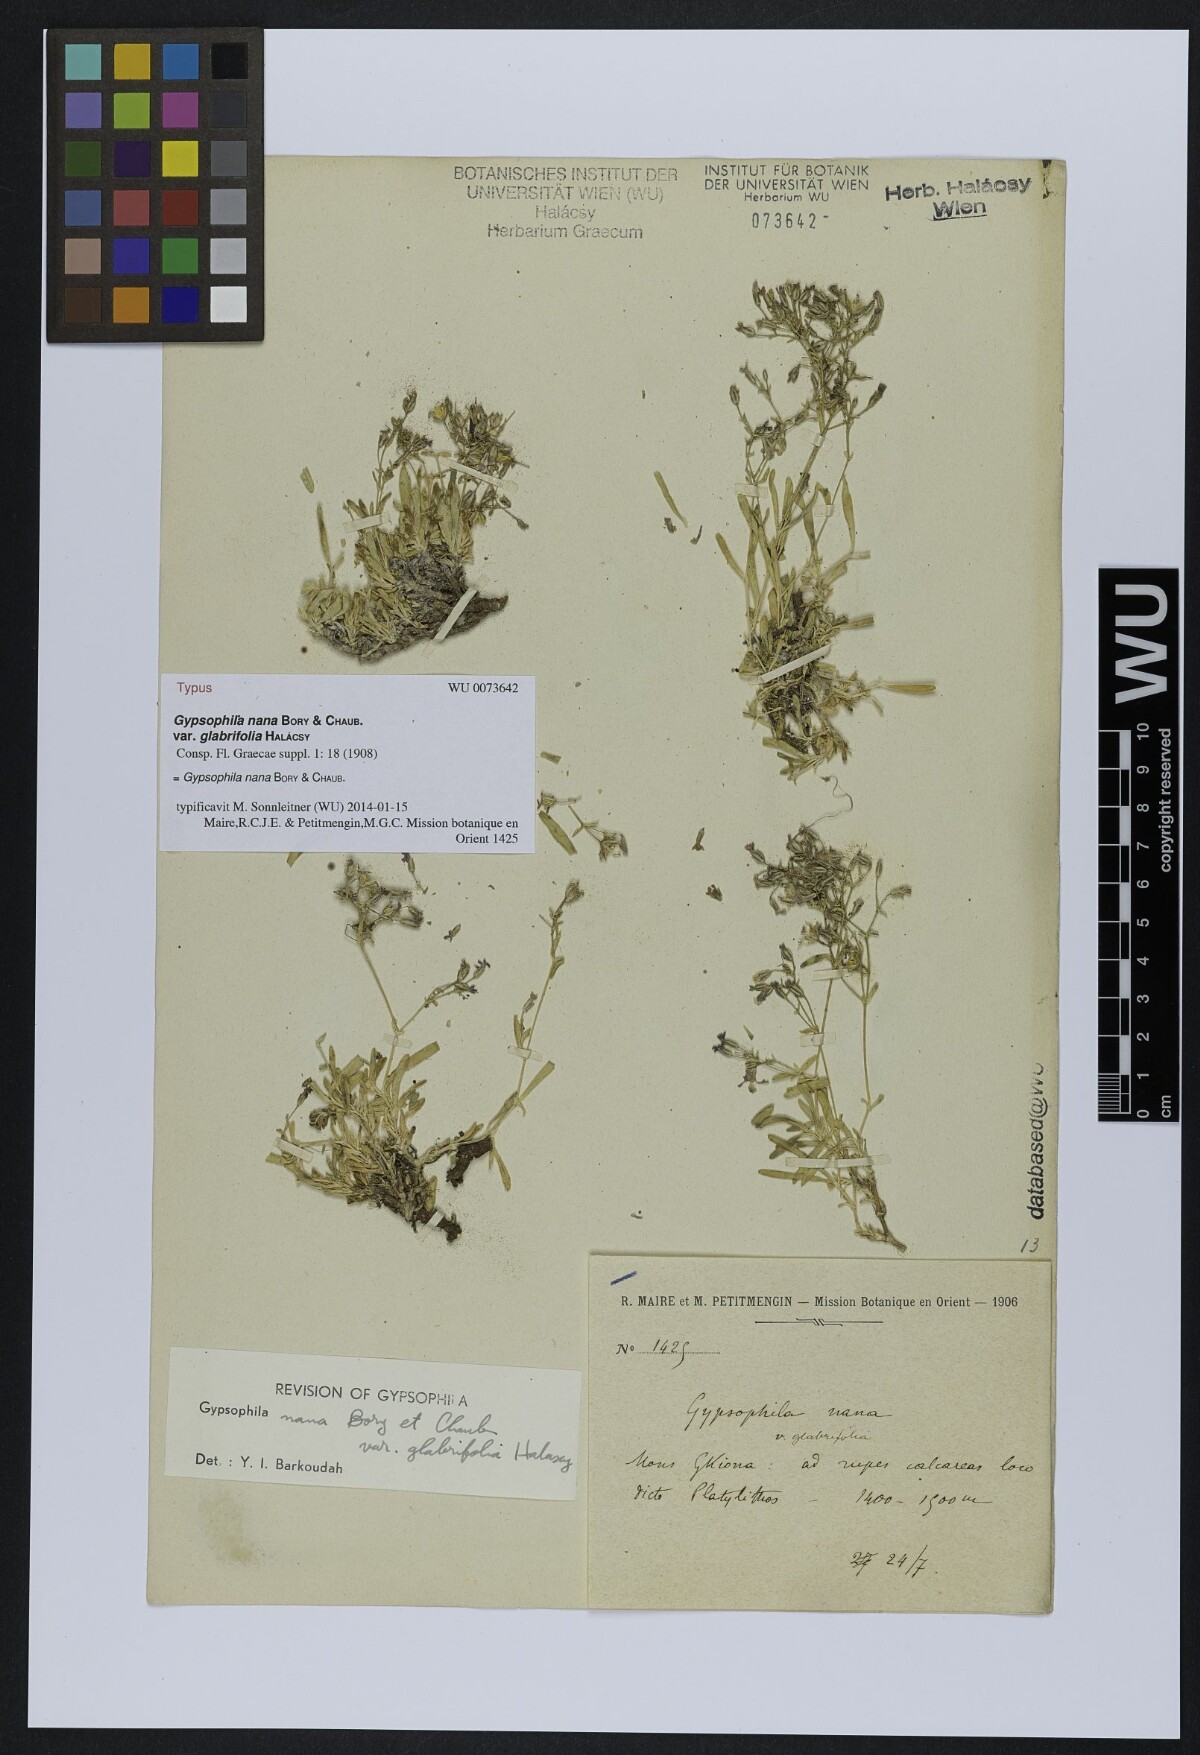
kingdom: Plantae
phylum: Tracheophyta
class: Magnoliopsida
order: Caryophyllales
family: Caryophyllaceae
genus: Gypsophila
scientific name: Gypsophila nana
